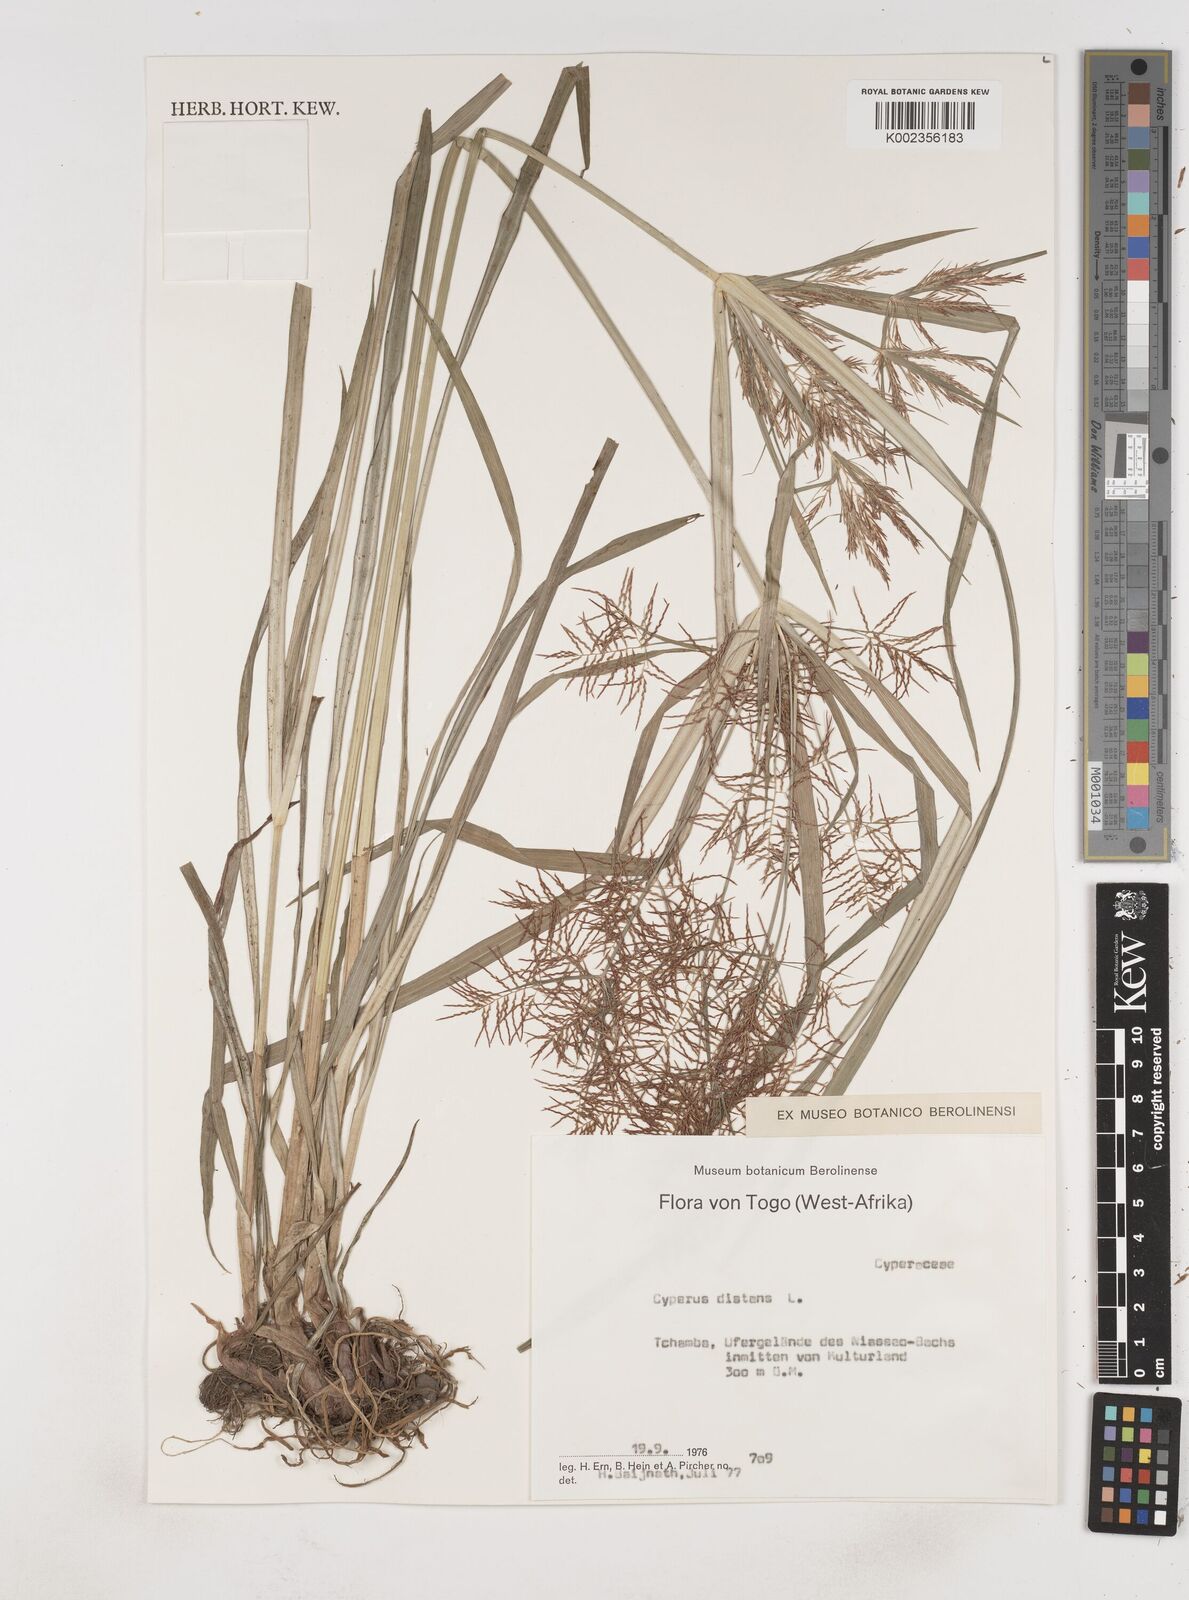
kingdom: Plantae
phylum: Tracheophyta
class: Liliopsida
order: Poales
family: Cyperaceae
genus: Cyperus
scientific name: Cyperus distans
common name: Slender cyperus
